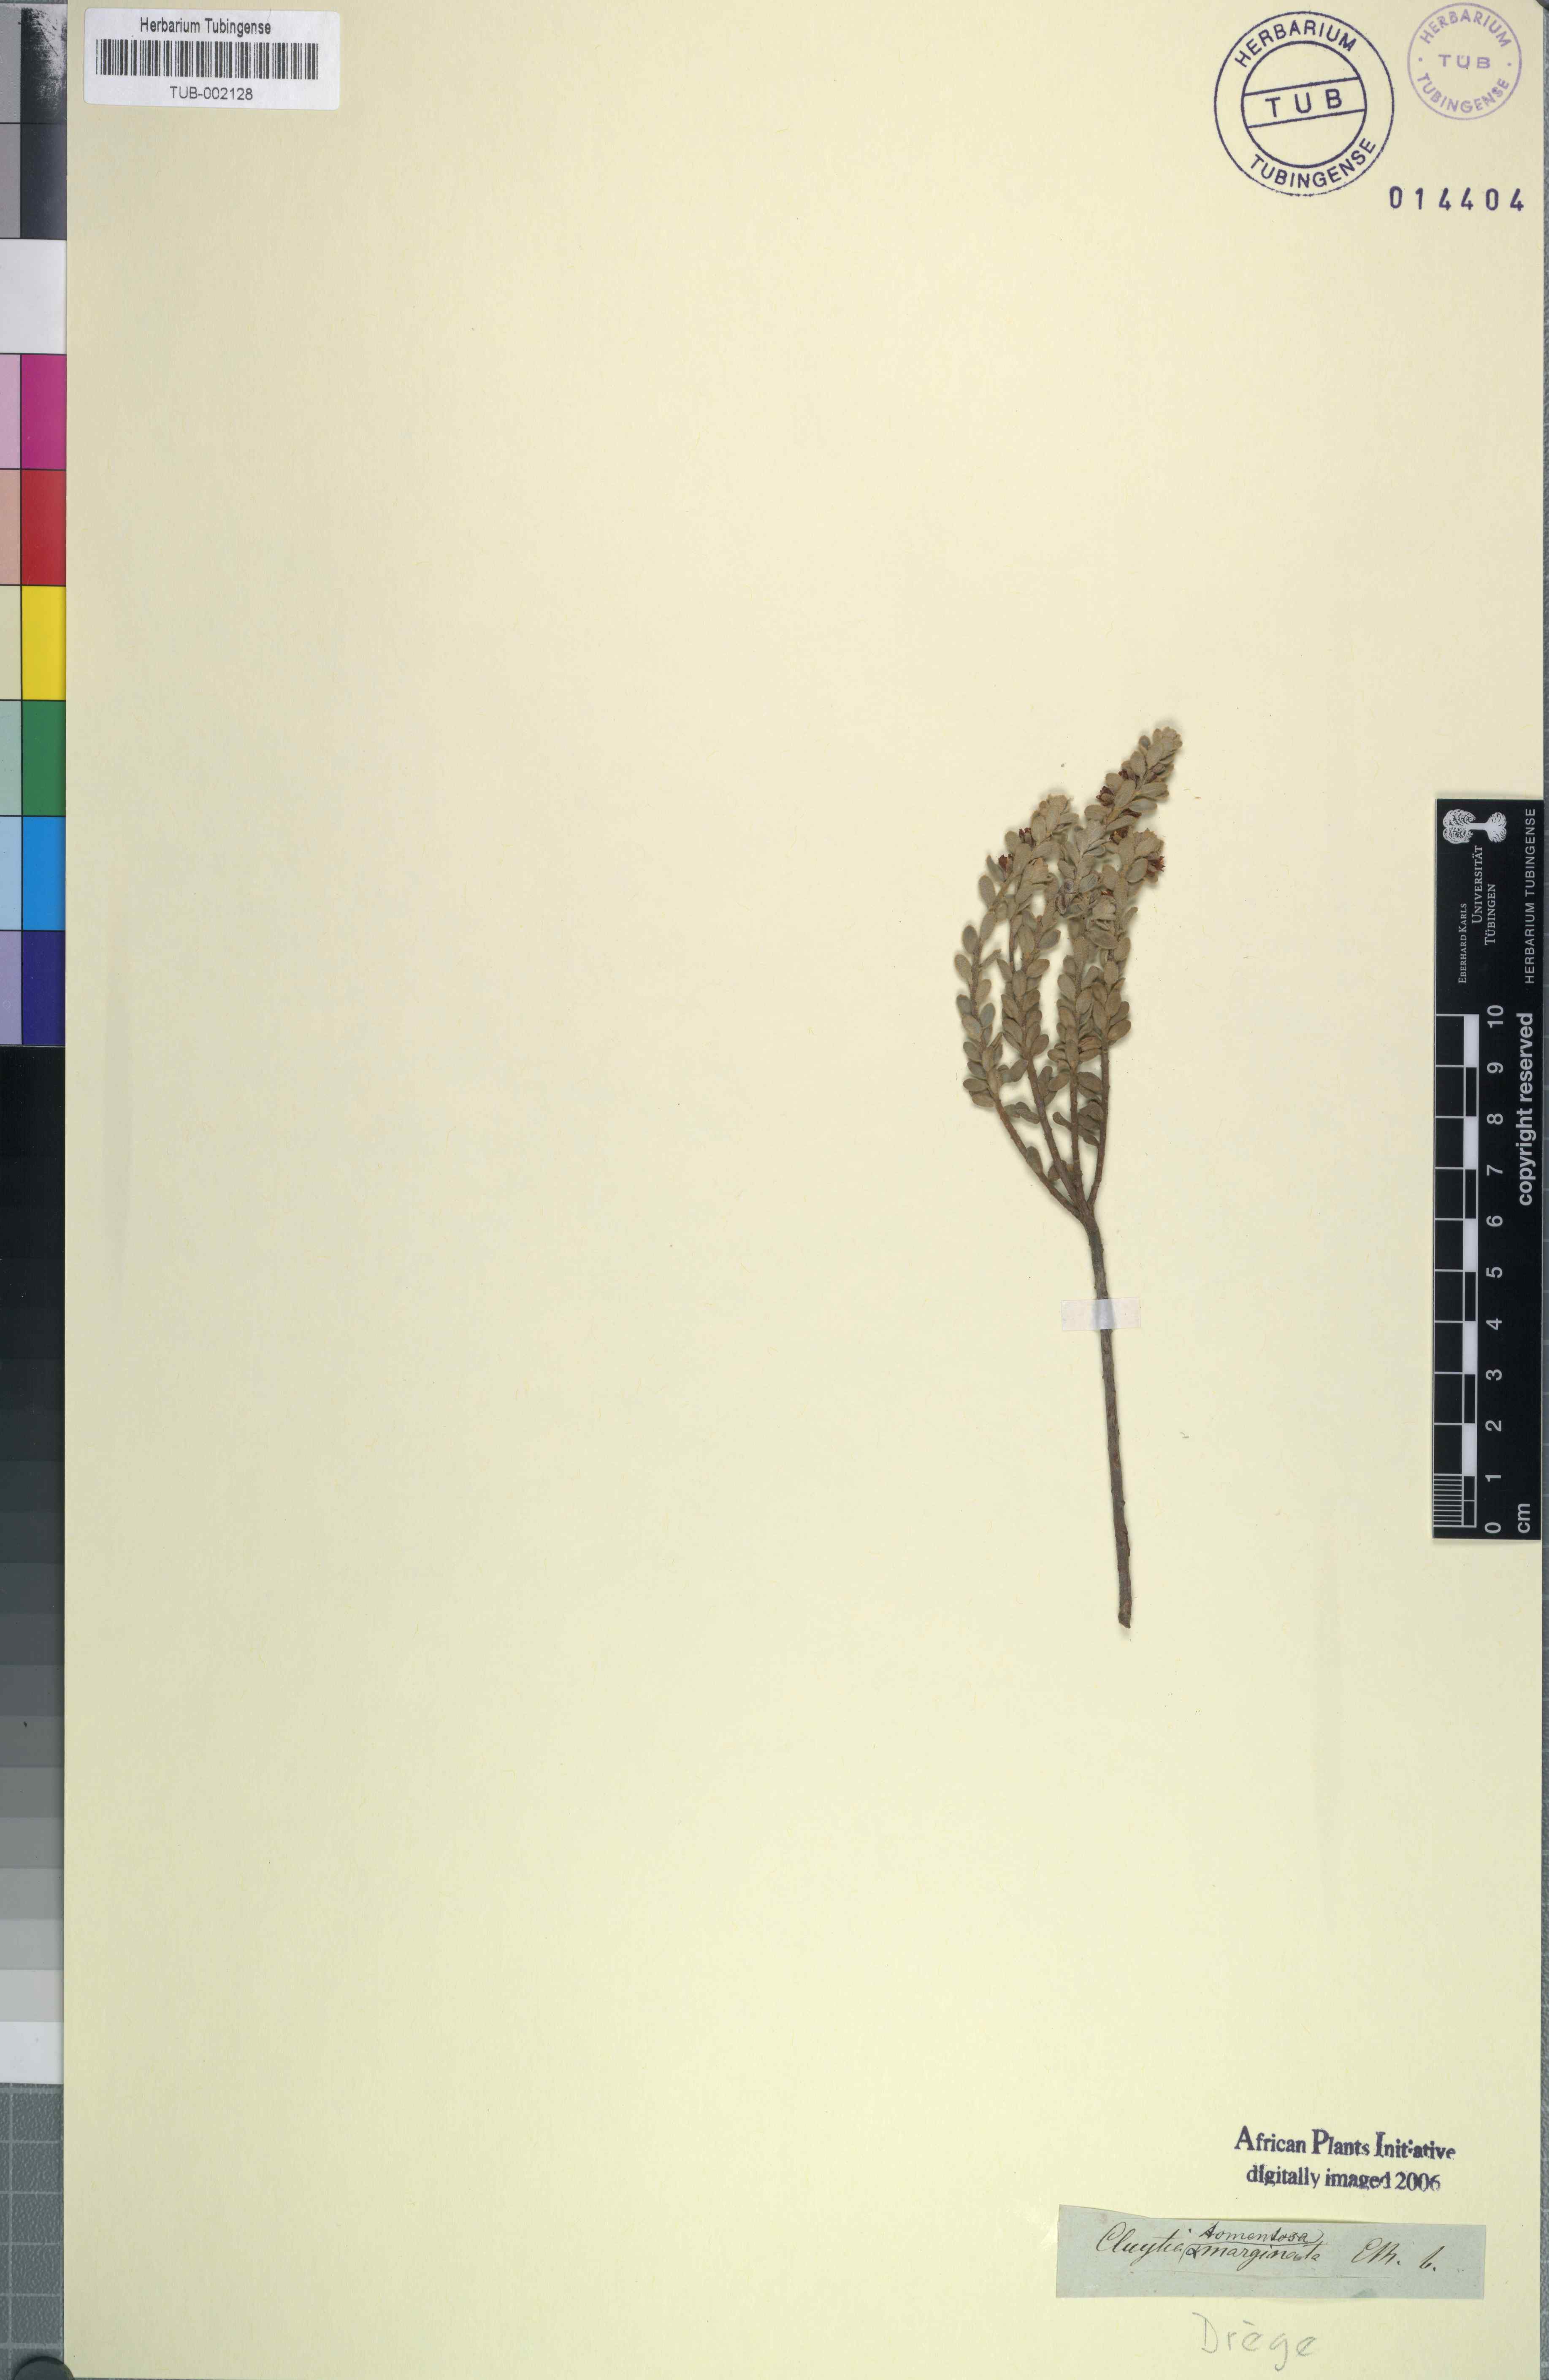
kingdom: Plantae
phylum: Tracheophyta
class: Magnoliopsida
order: Malpighiales
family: Peraceae
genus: Clutia
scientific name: Clutia tomentosa
